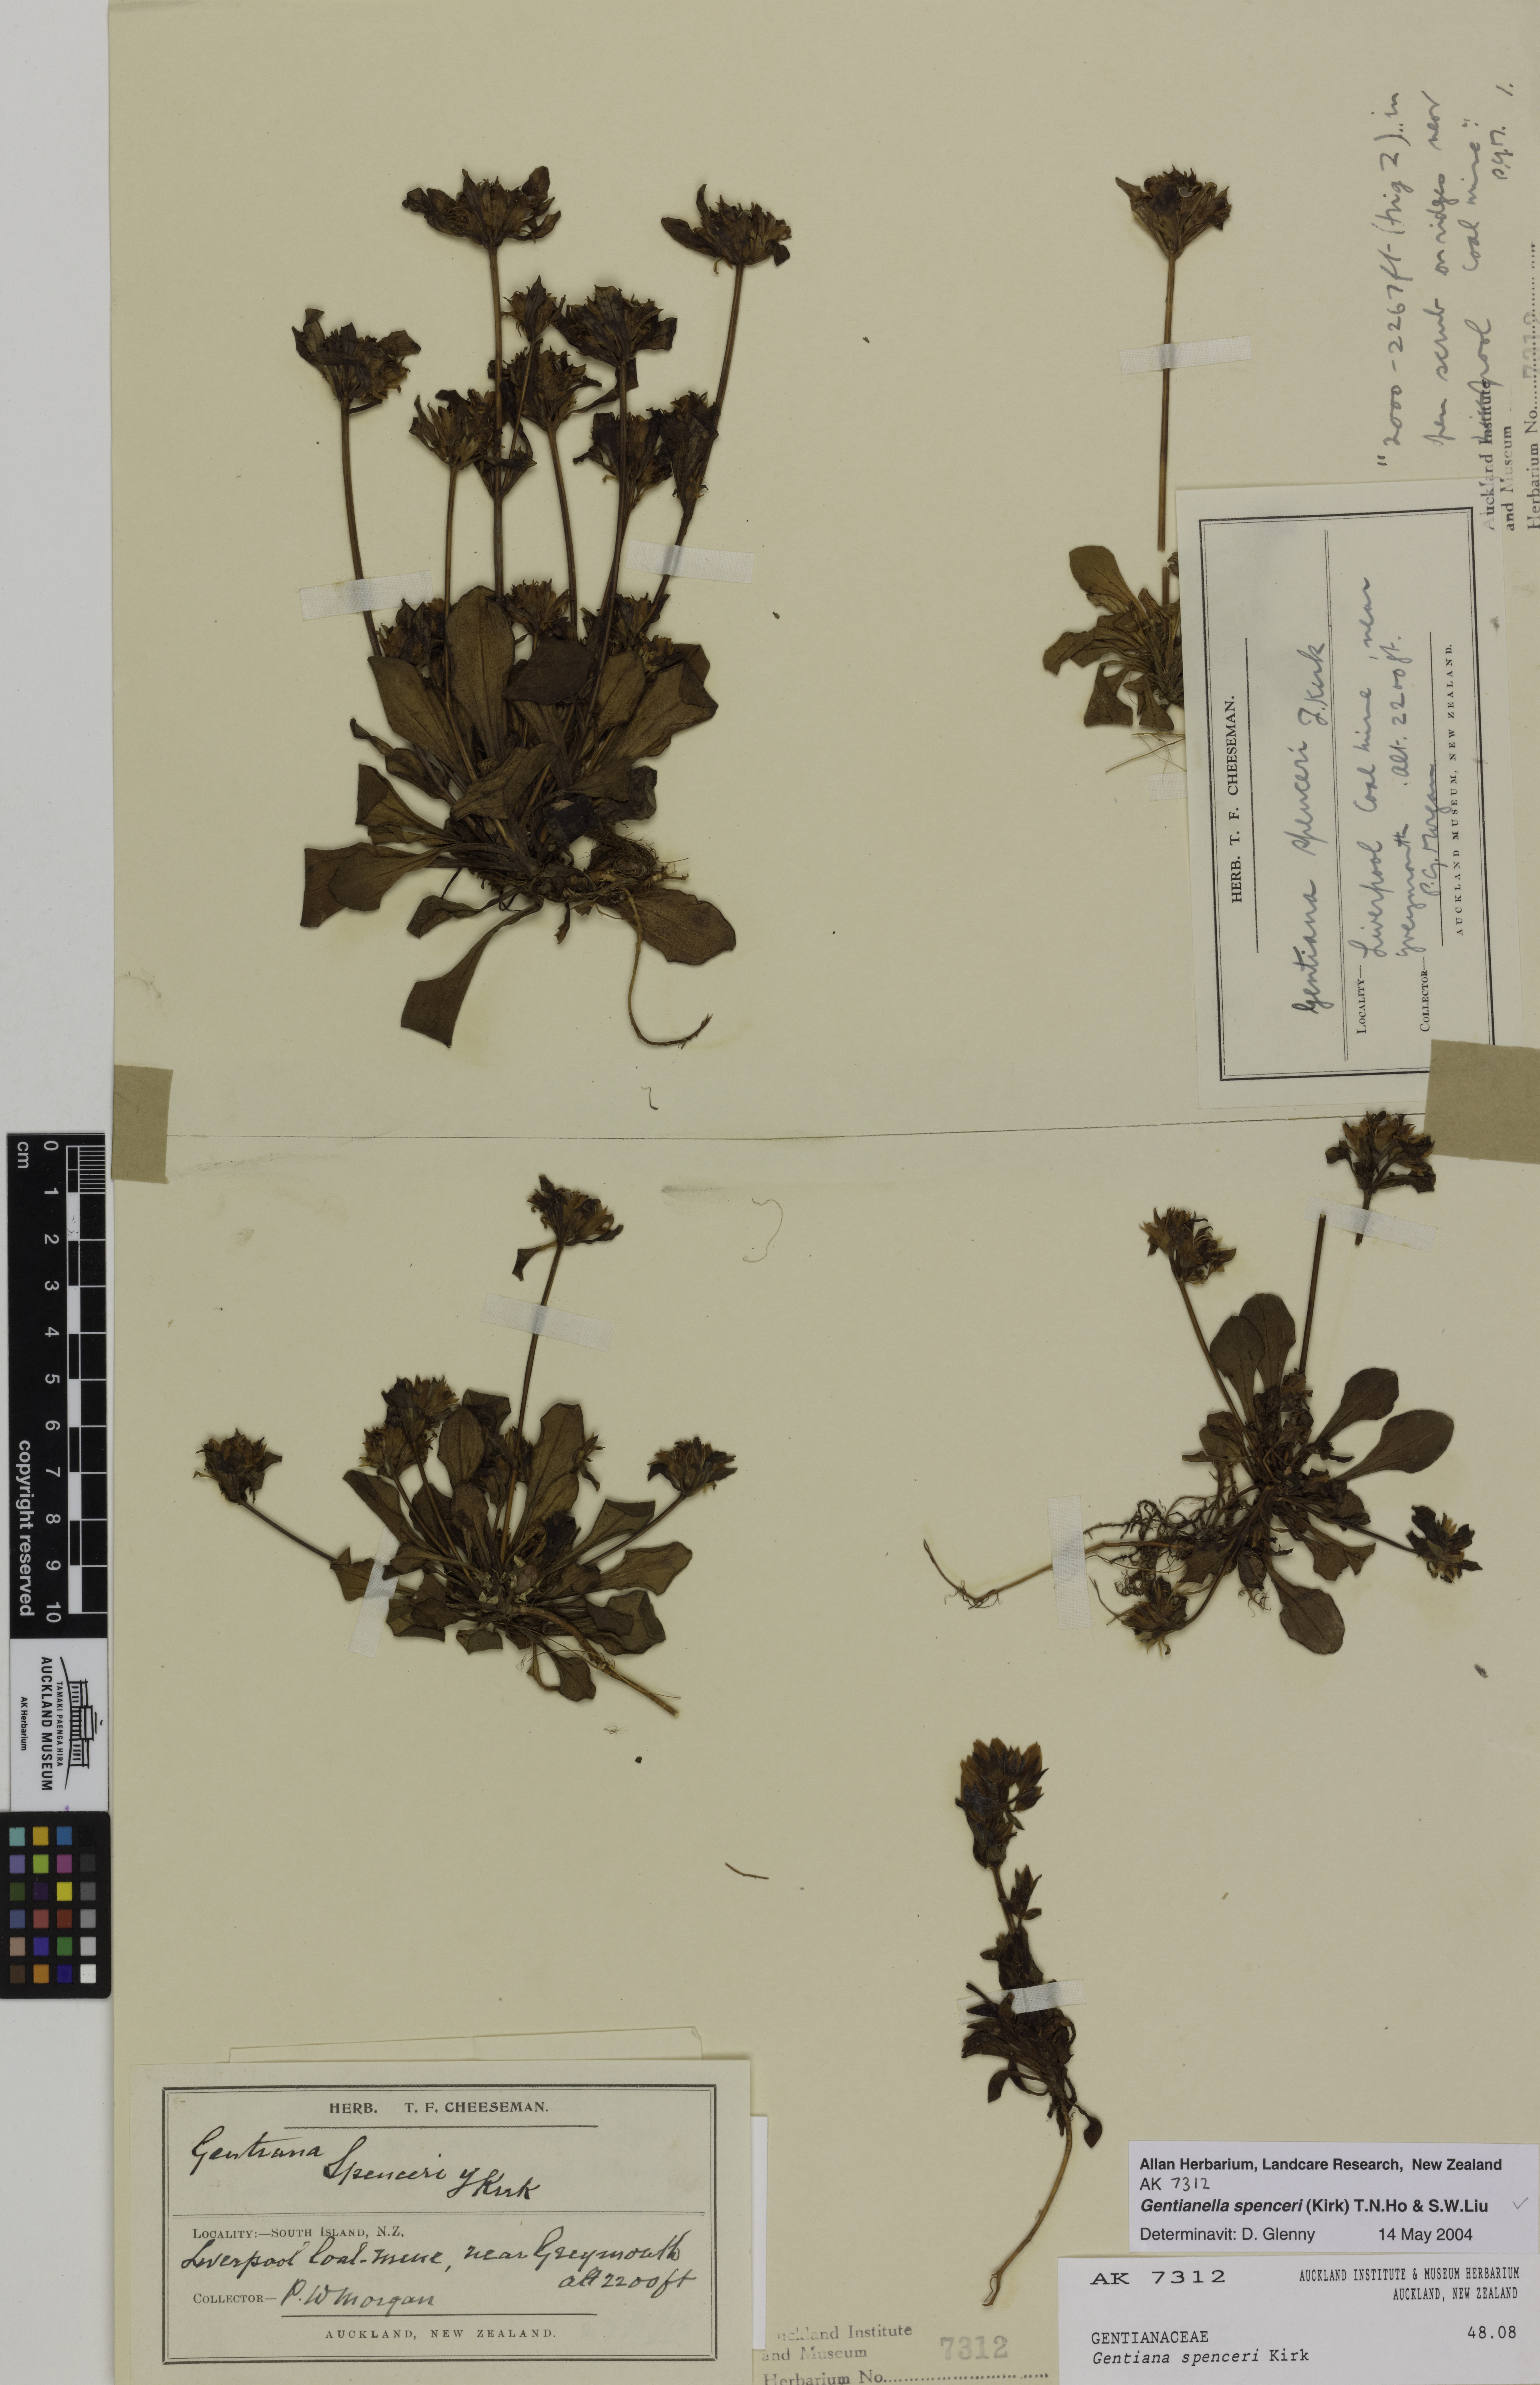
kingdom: Plantae
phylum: Tracheophyta
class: Magnoliopsida
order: Gentianales
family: Gentianaceae
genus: Gentianella
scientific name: Gentianella spenceri
